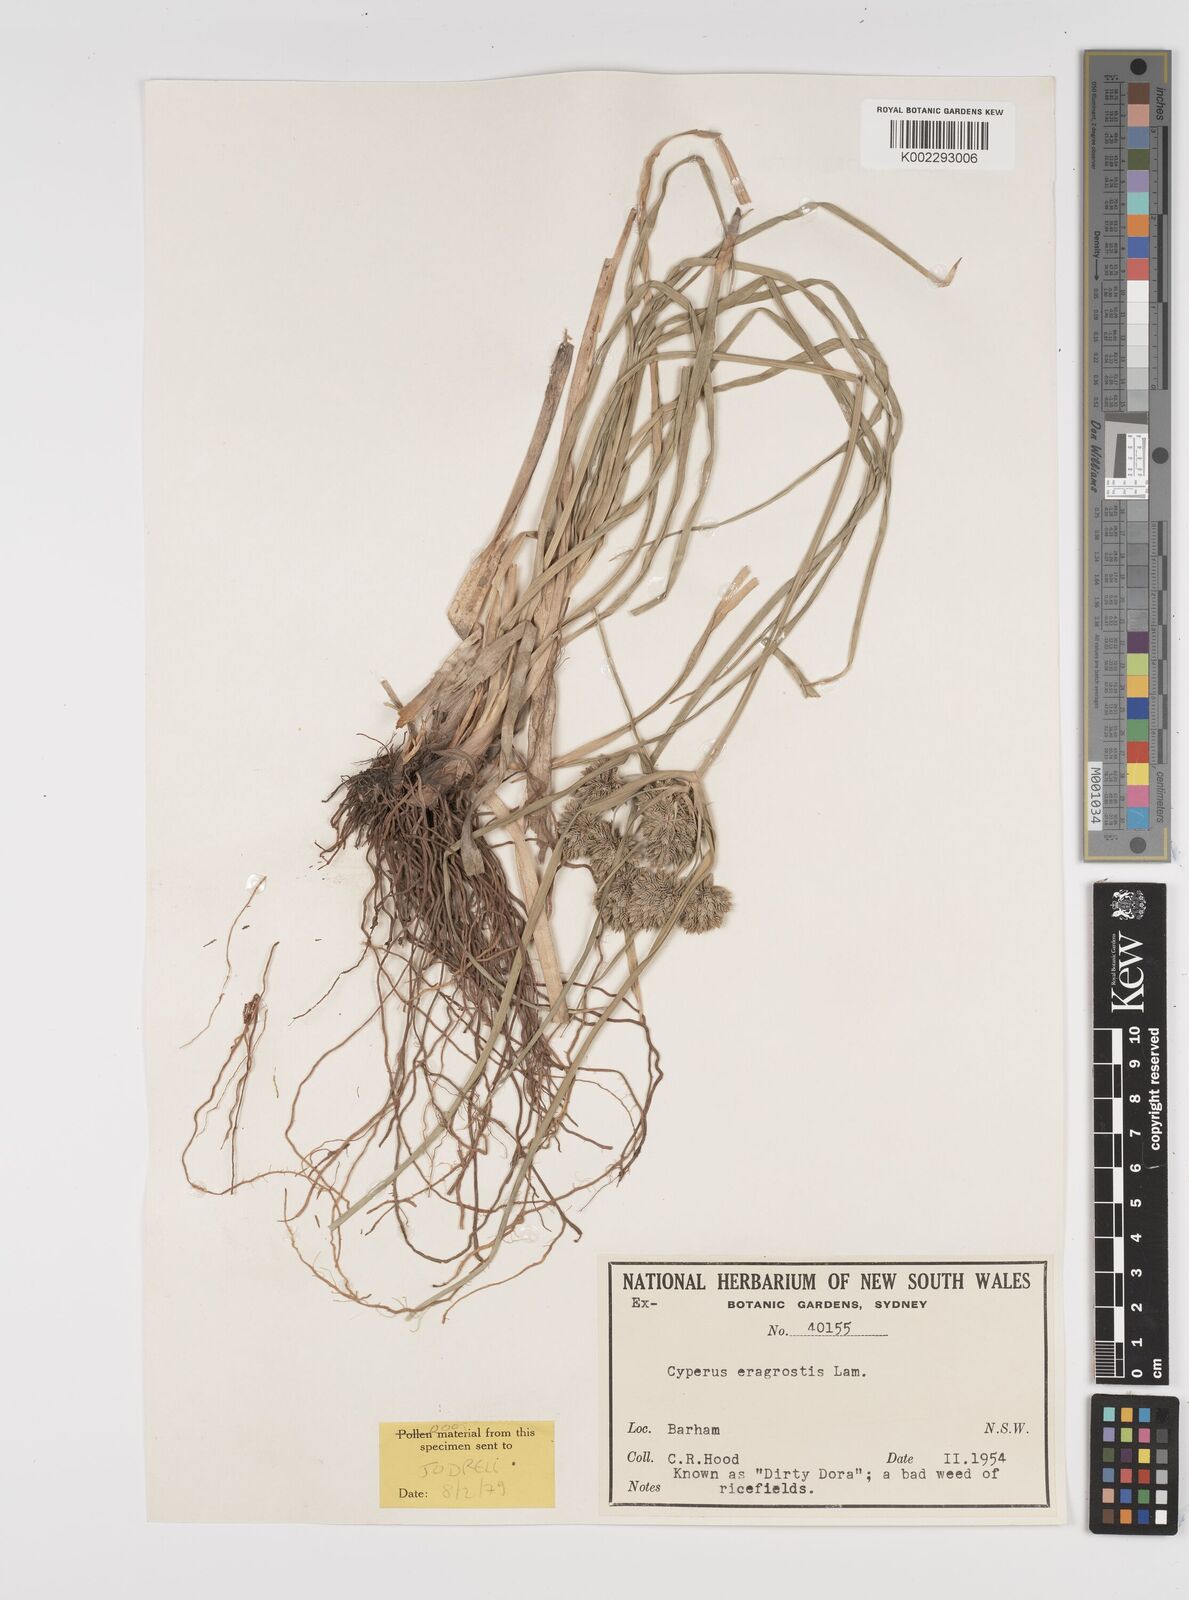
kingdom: Plantae
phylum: Tracheophyta
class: Liliopsida
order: Poales
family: Cyperaceae
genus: Cyperus
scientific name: Cyperus eragrostis
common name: Tall flatsedge
